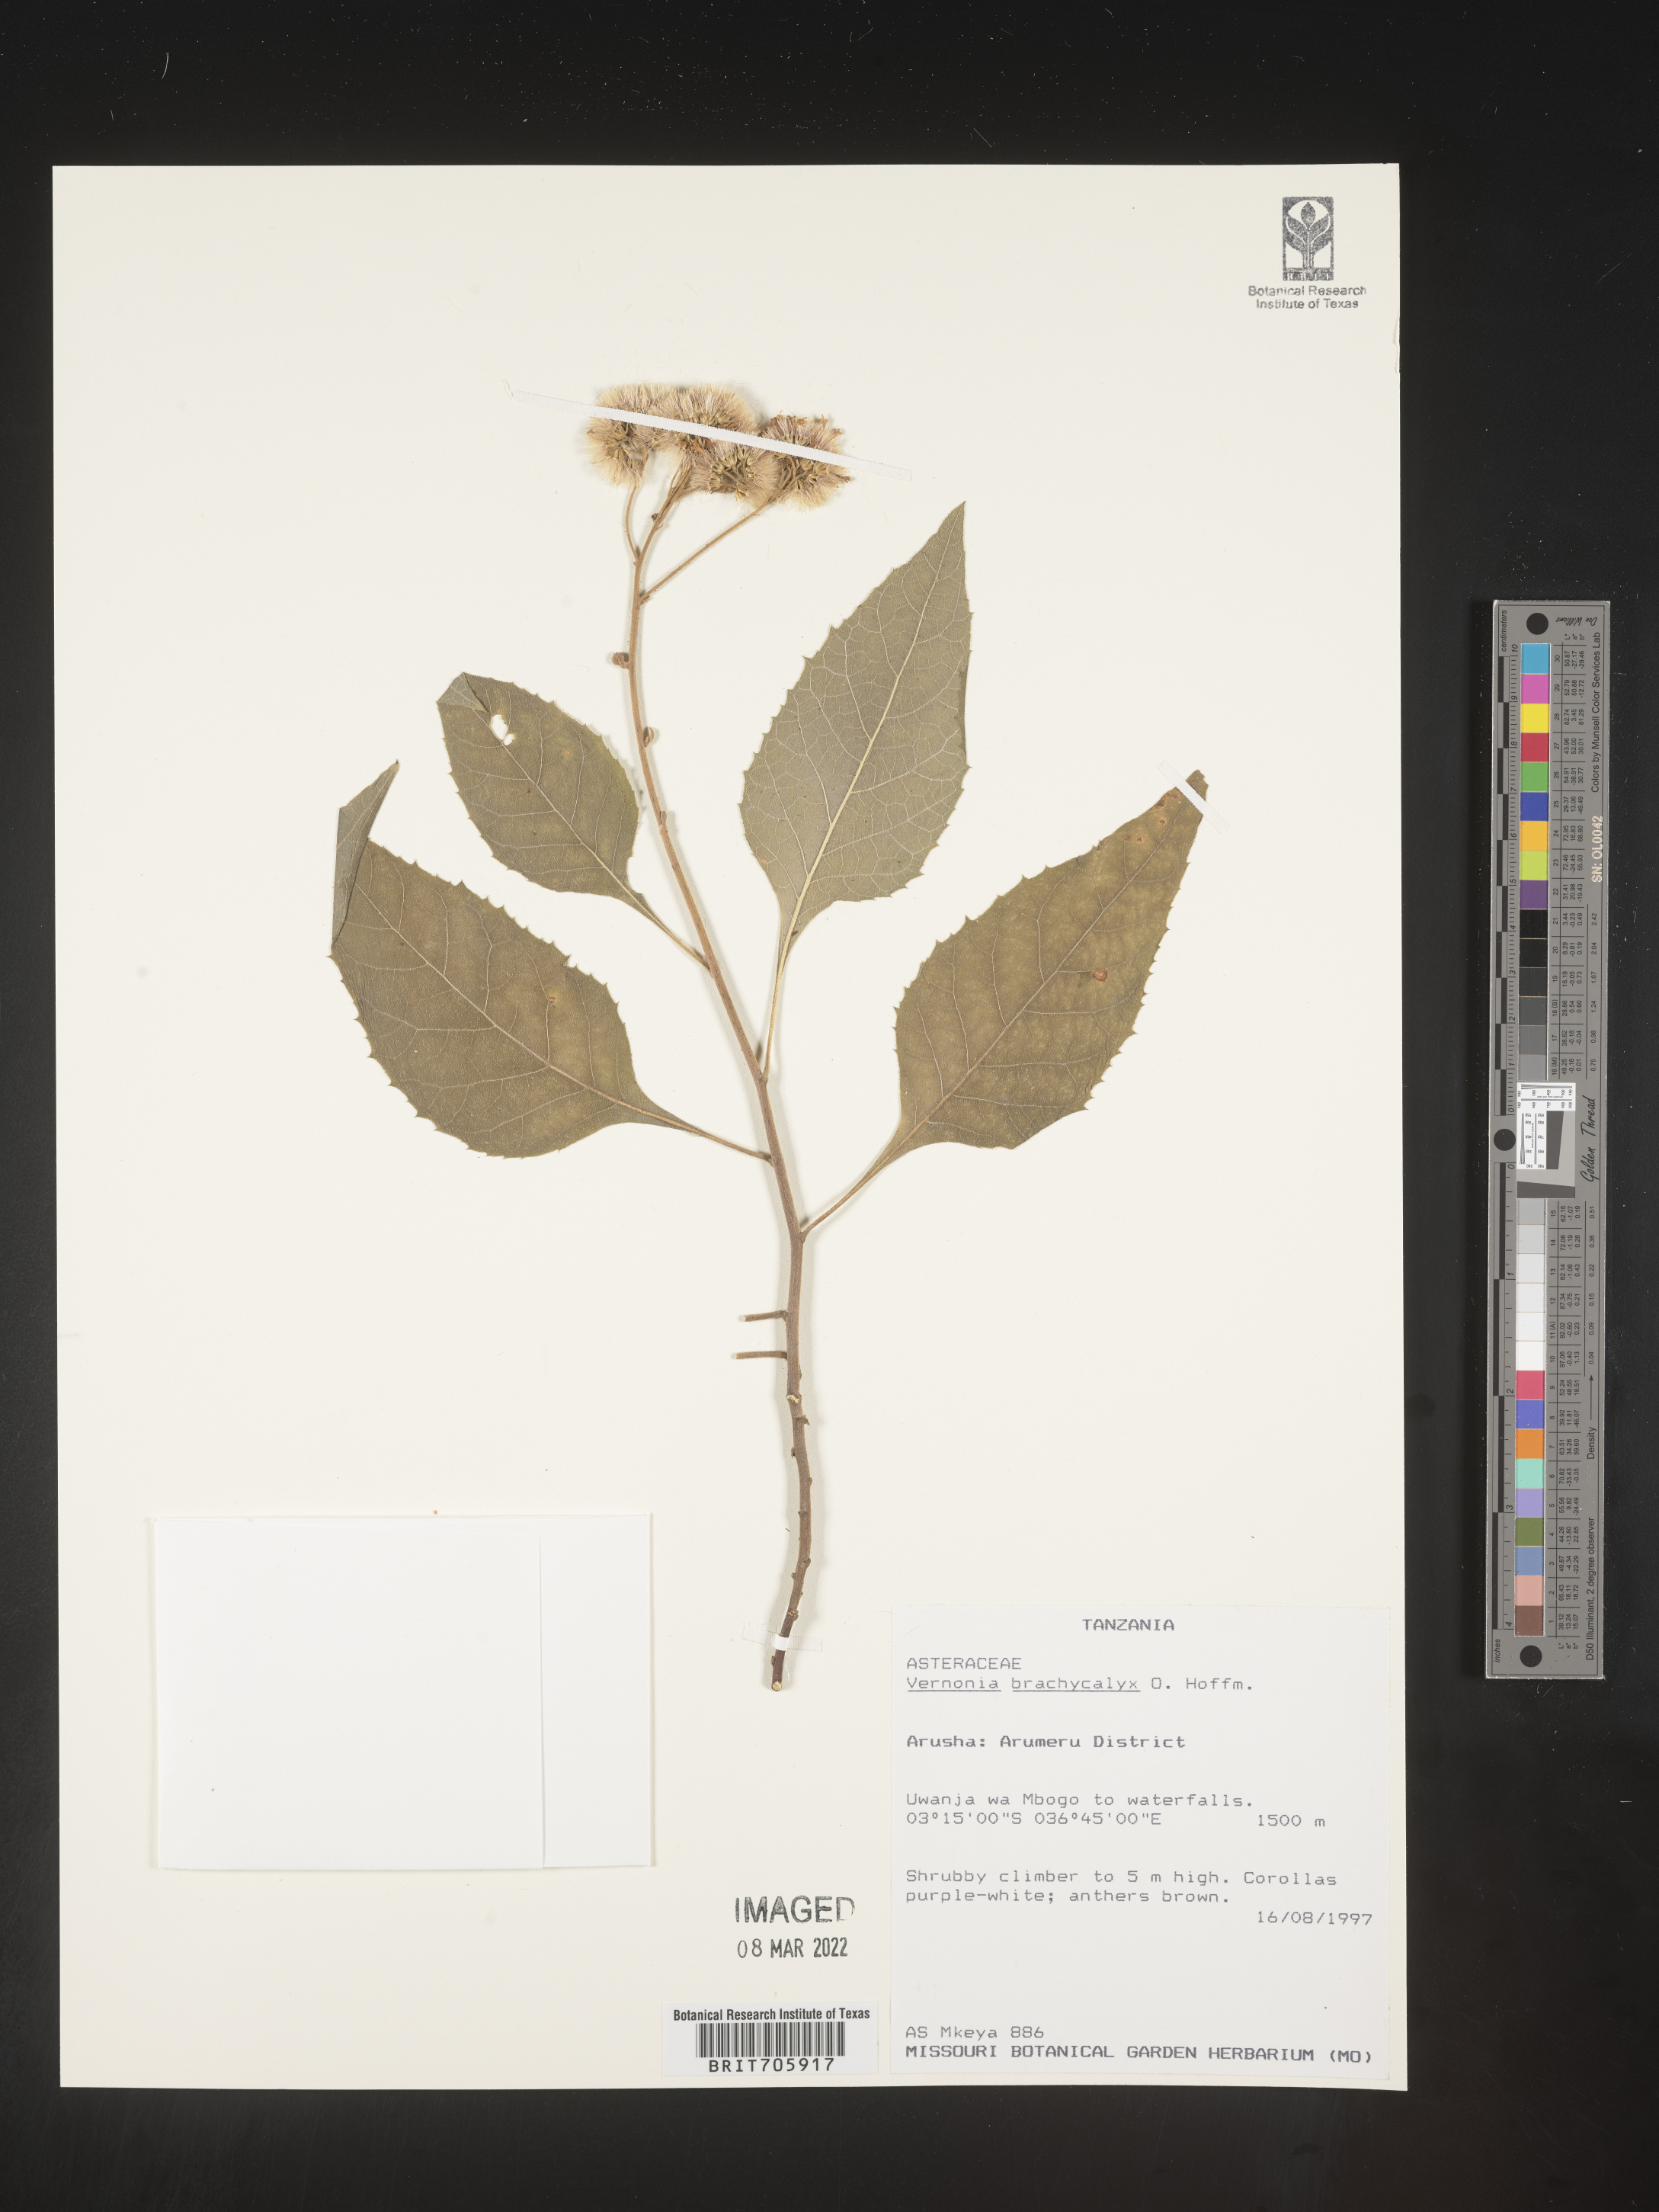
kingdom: Plantae
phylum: Tracheophyta
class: Magnoliopsida
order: Asterales
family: Asteraceae
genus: Vernonia
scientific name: Vernonia
